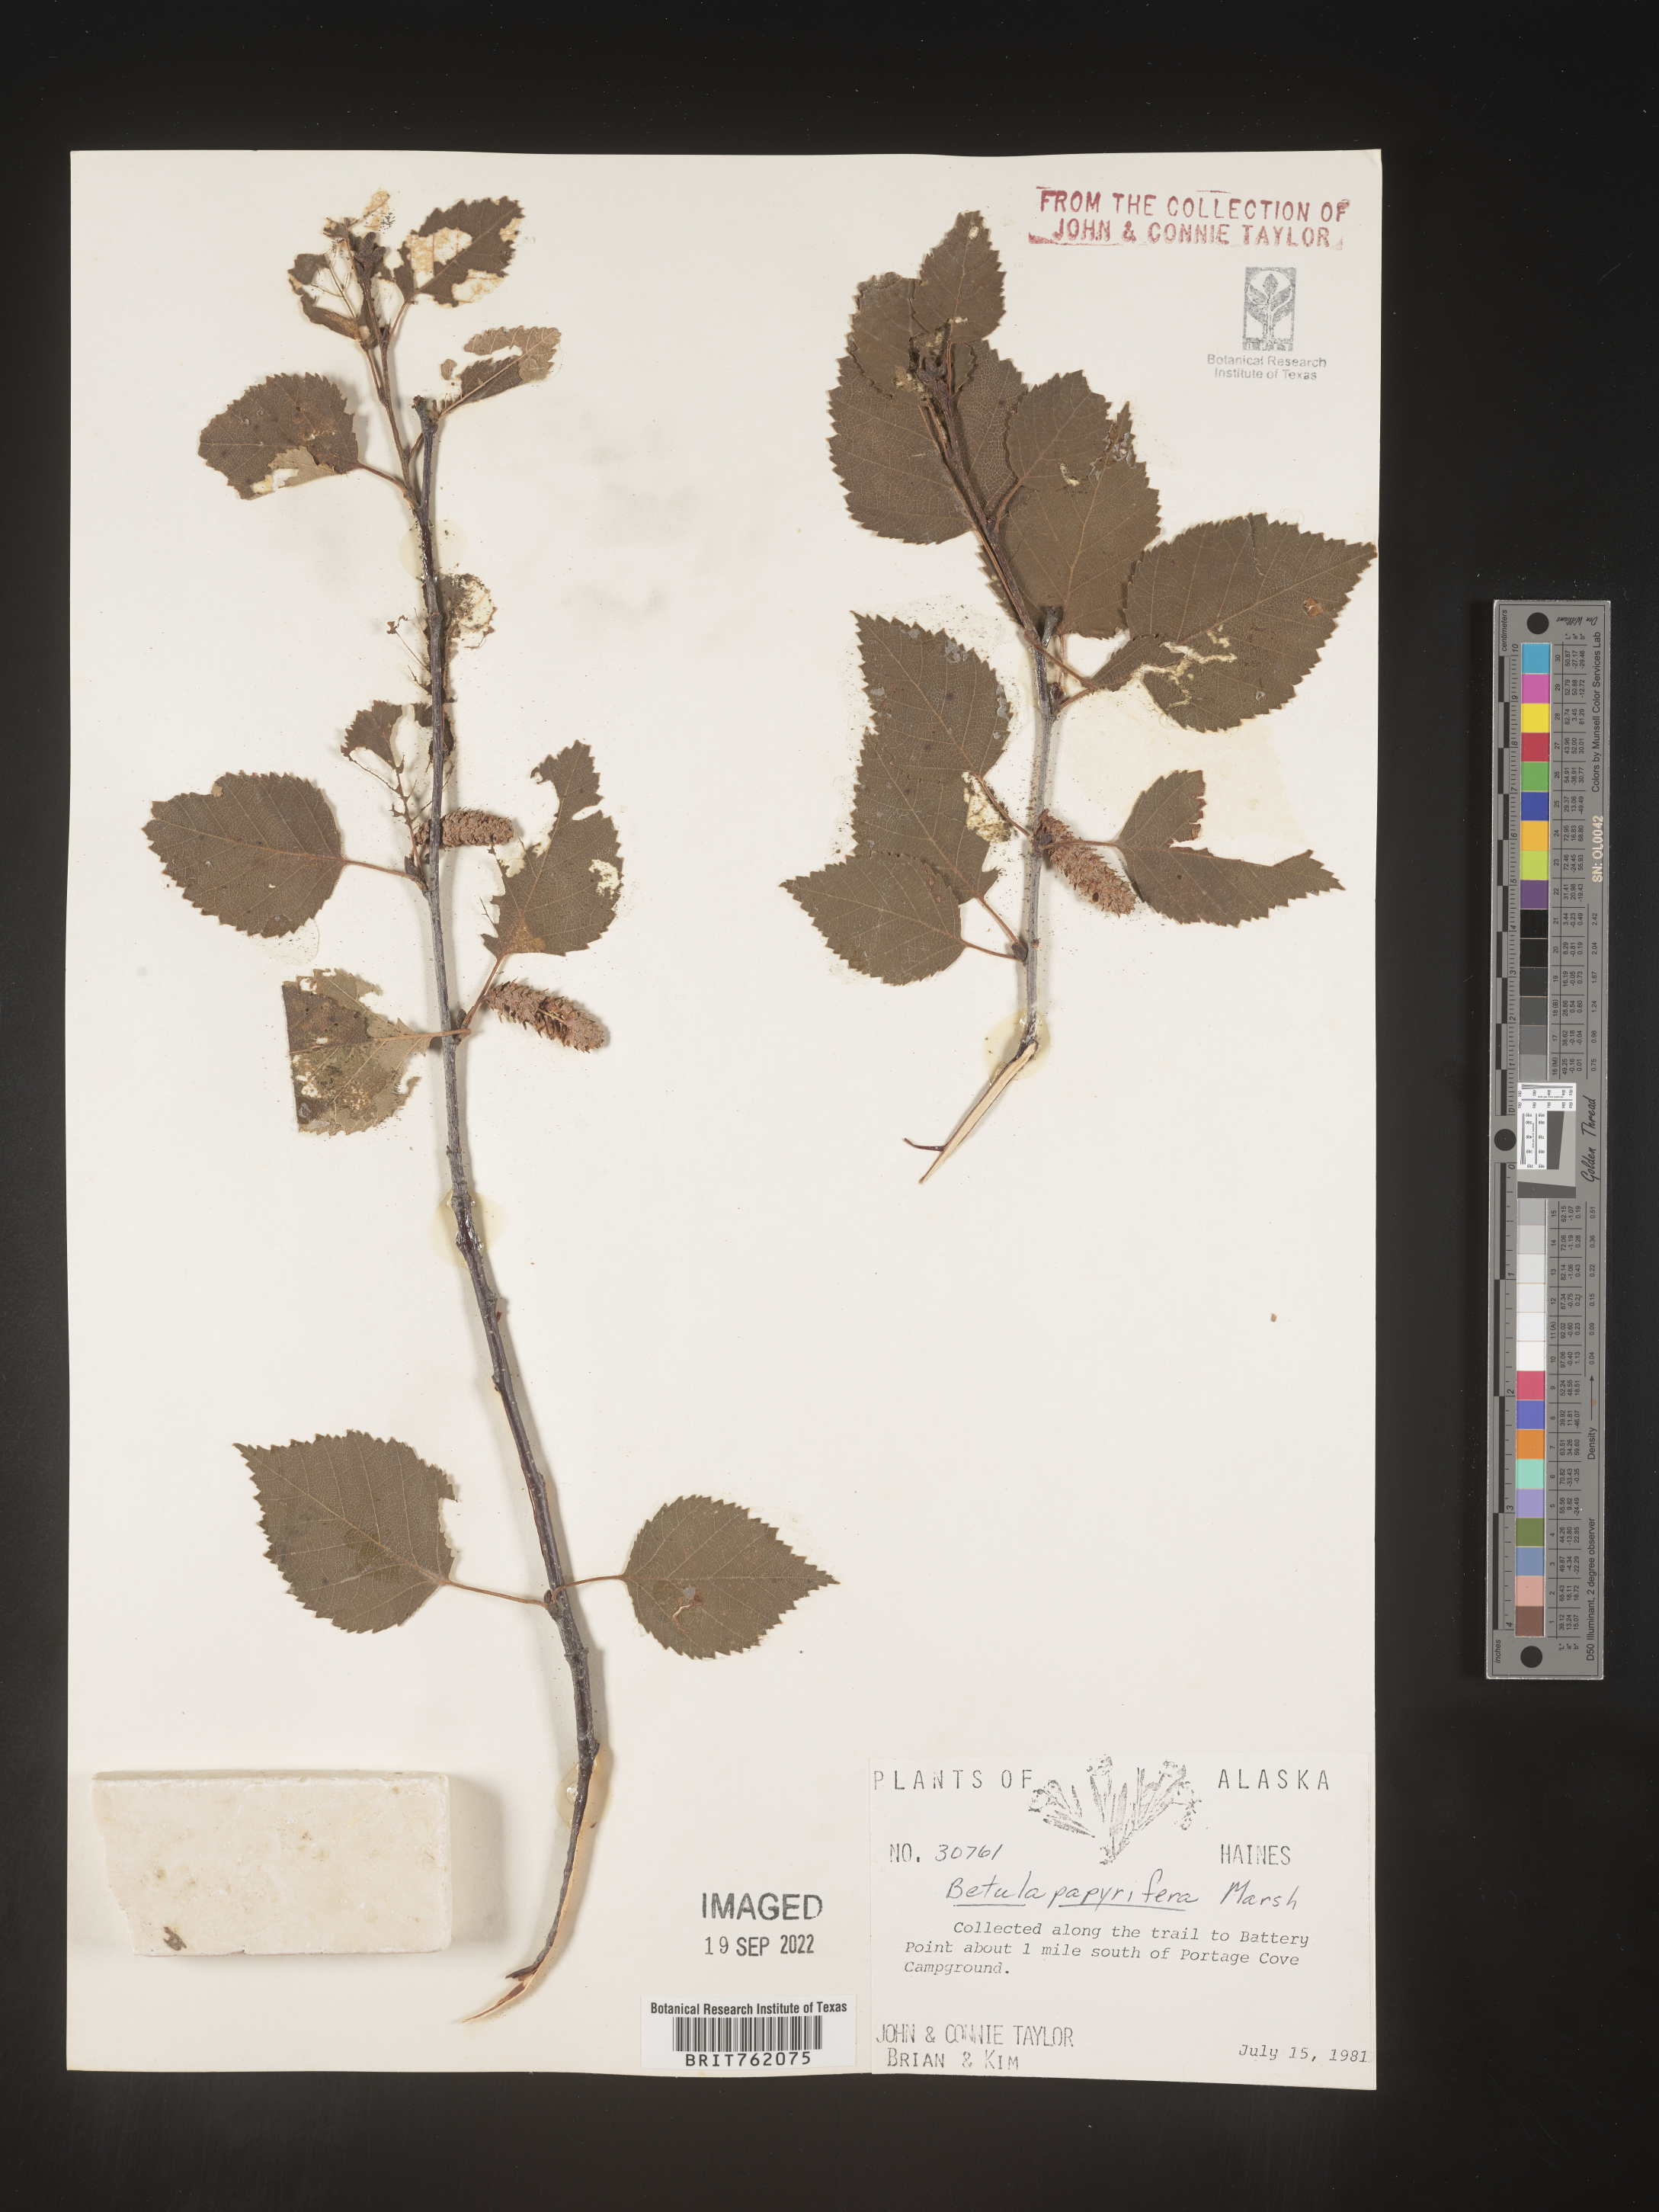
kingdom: Plantae
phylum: Tracheophyta
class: Magnoliopsida
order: Fagales
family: Betulaceae
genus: Betula
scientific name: Betula papyrifera
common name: Paper birch
